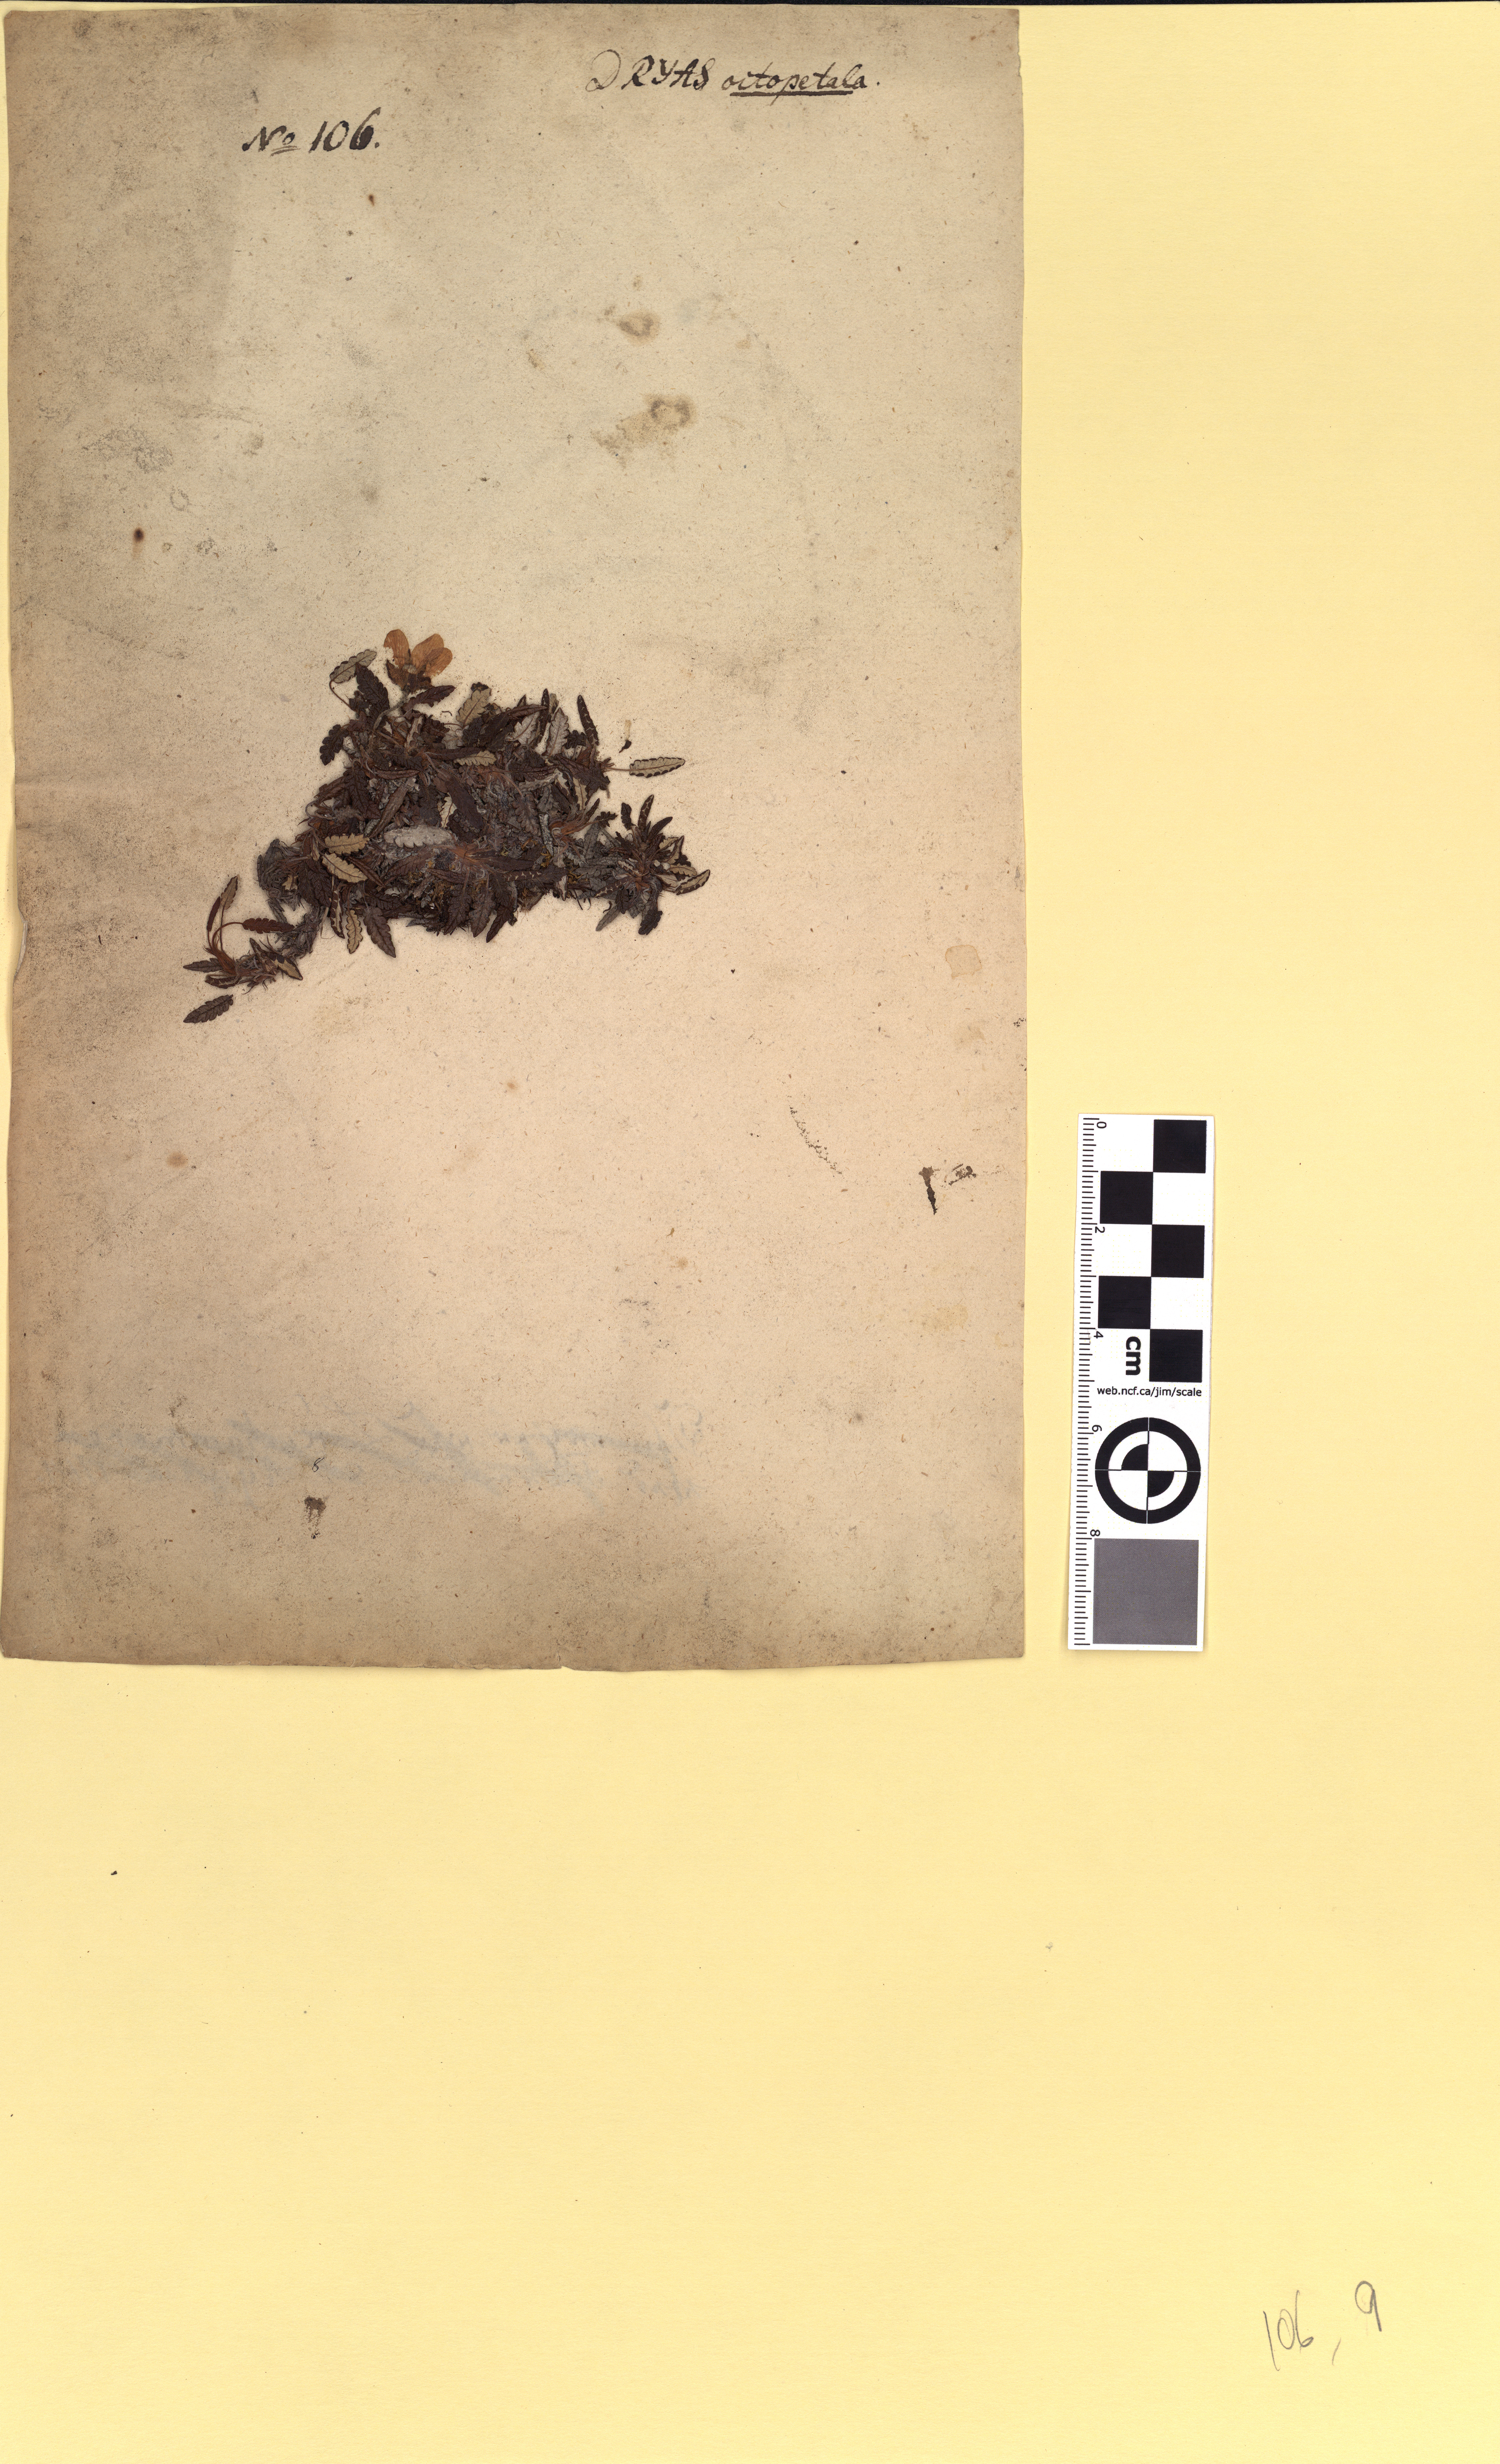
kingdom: Plantae
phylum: Tracheophyta
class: Magnoliopsida
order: Rosales
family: Rosaceae
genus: Dryas
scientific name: Dryas octopetala
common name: Eight-petal mountain-avens
